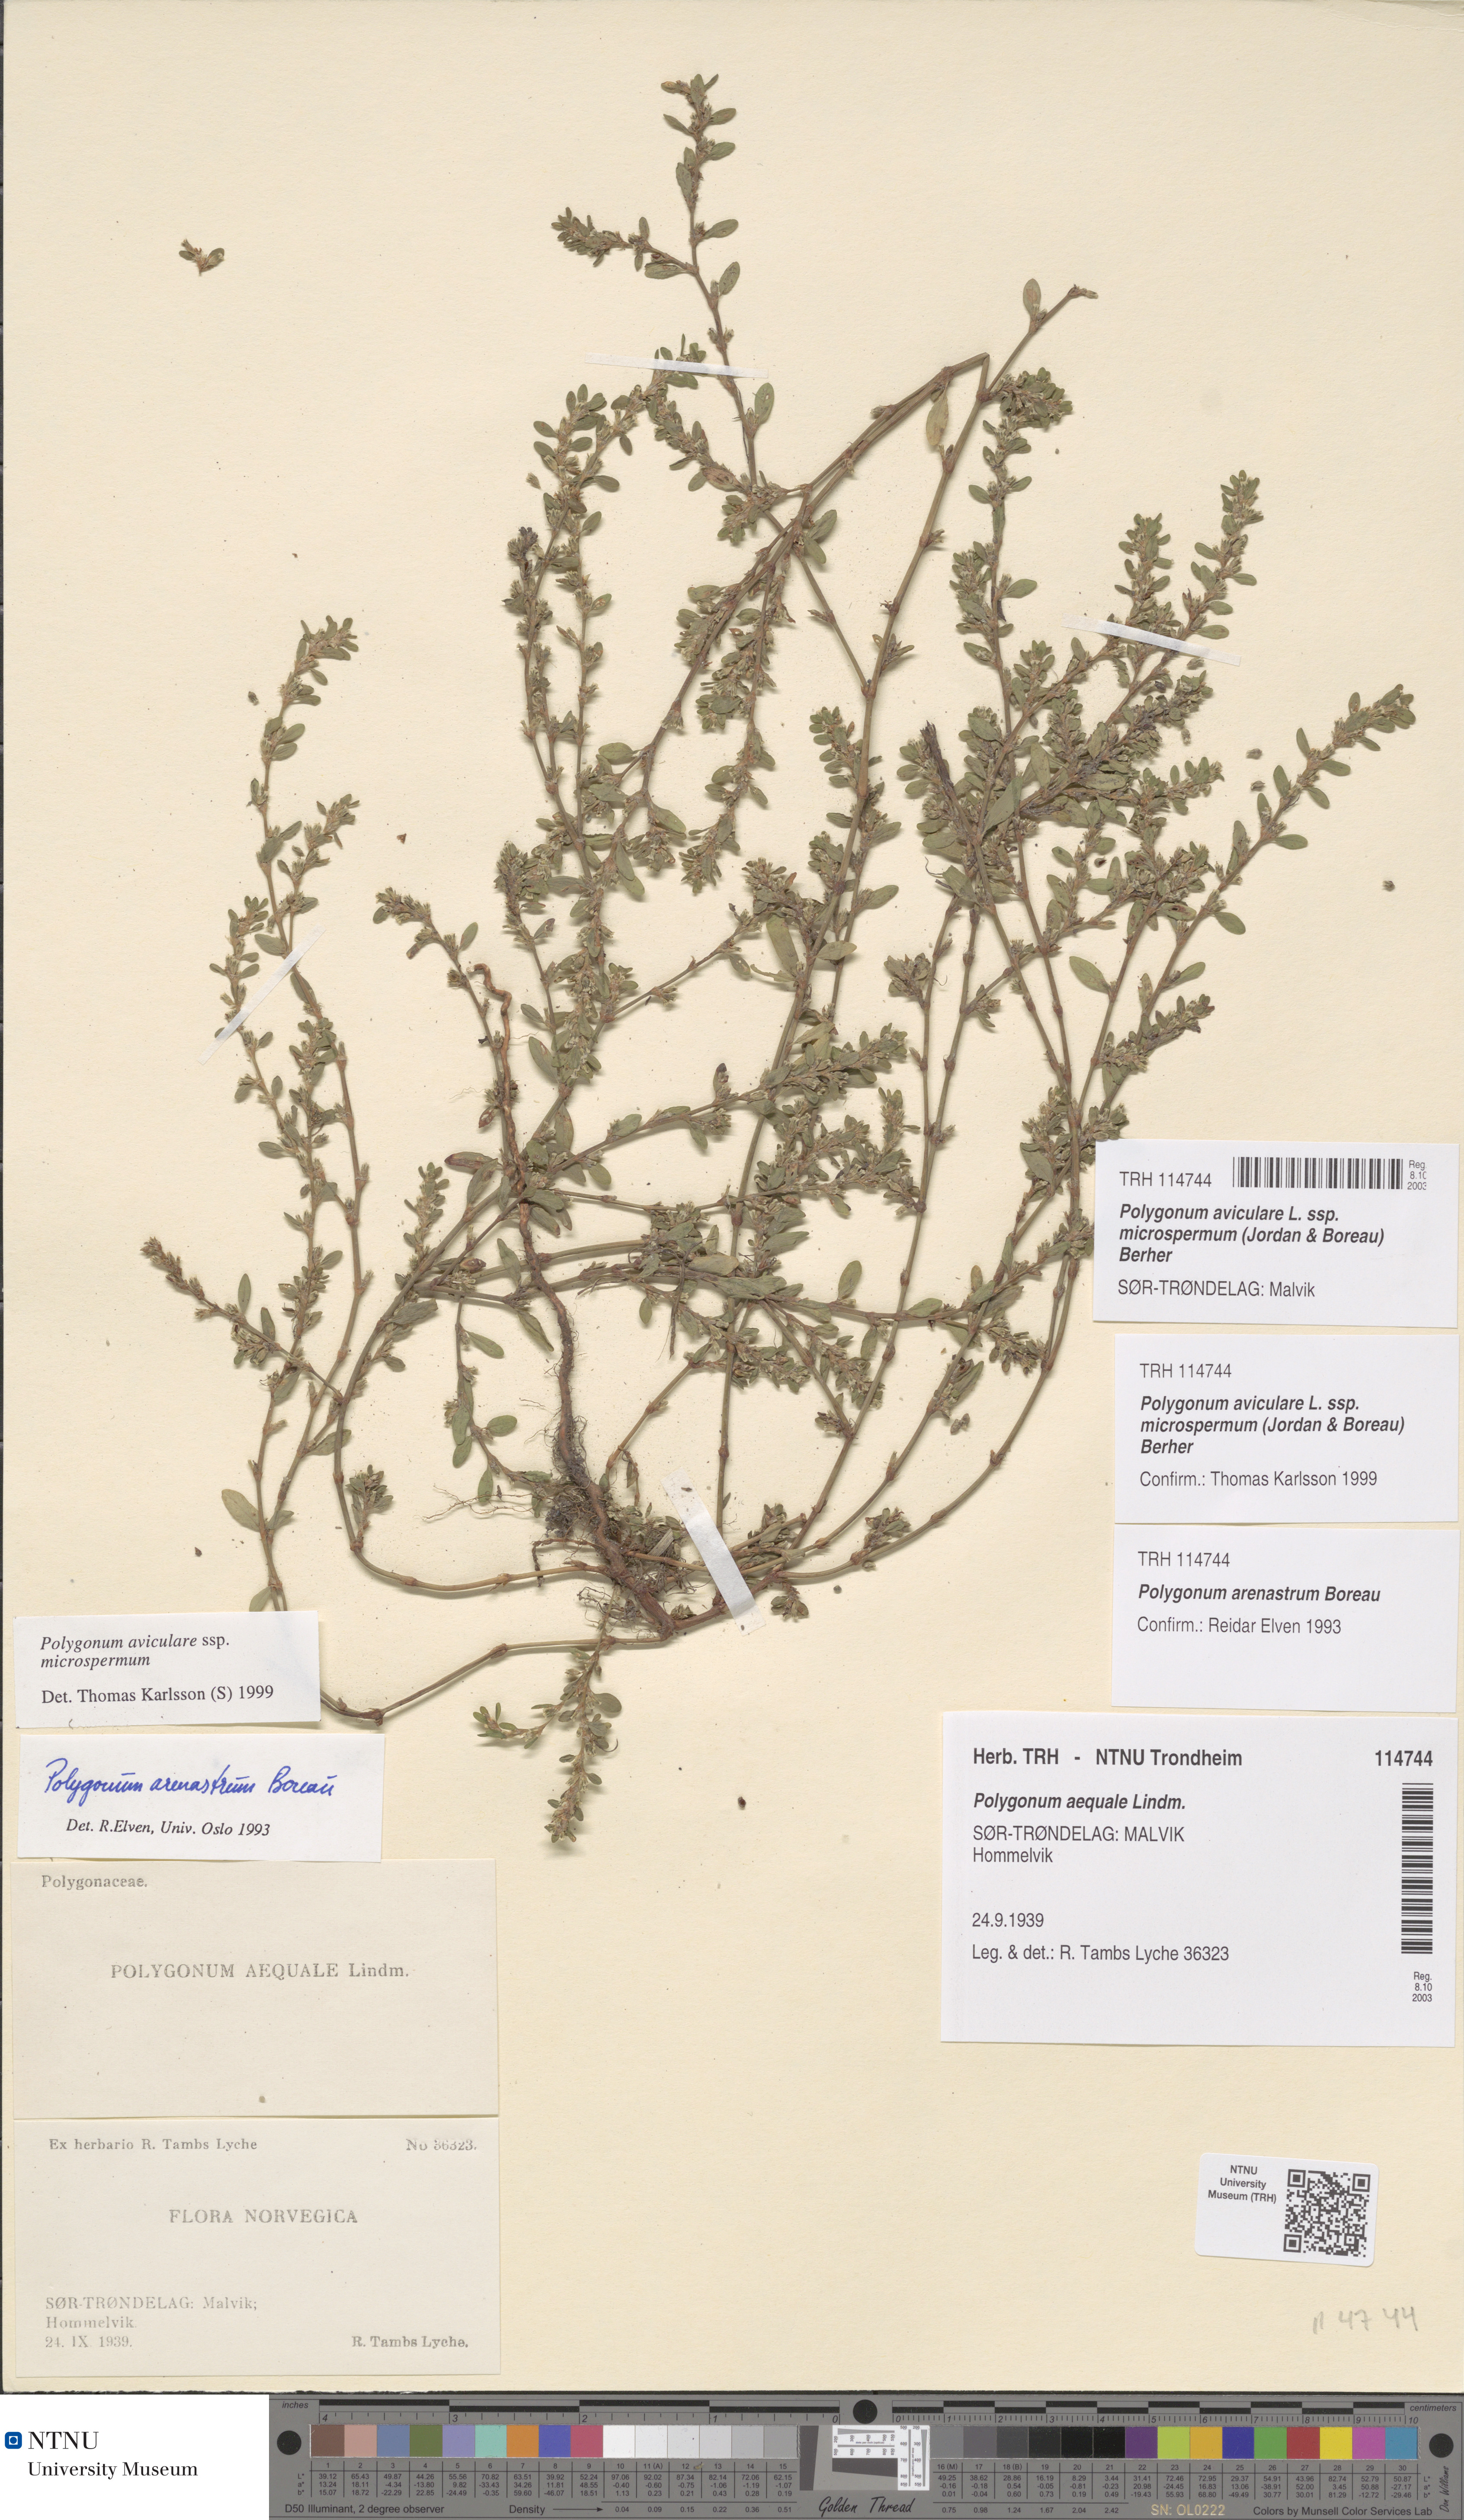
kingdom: Plantae
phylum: Tracheophyta
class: Magnoliopsida
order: Caryophyllales
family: Polygonaceae
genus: Polygonum
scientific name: Polygonum arenastrum
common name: Equal-leaved knotgrass
